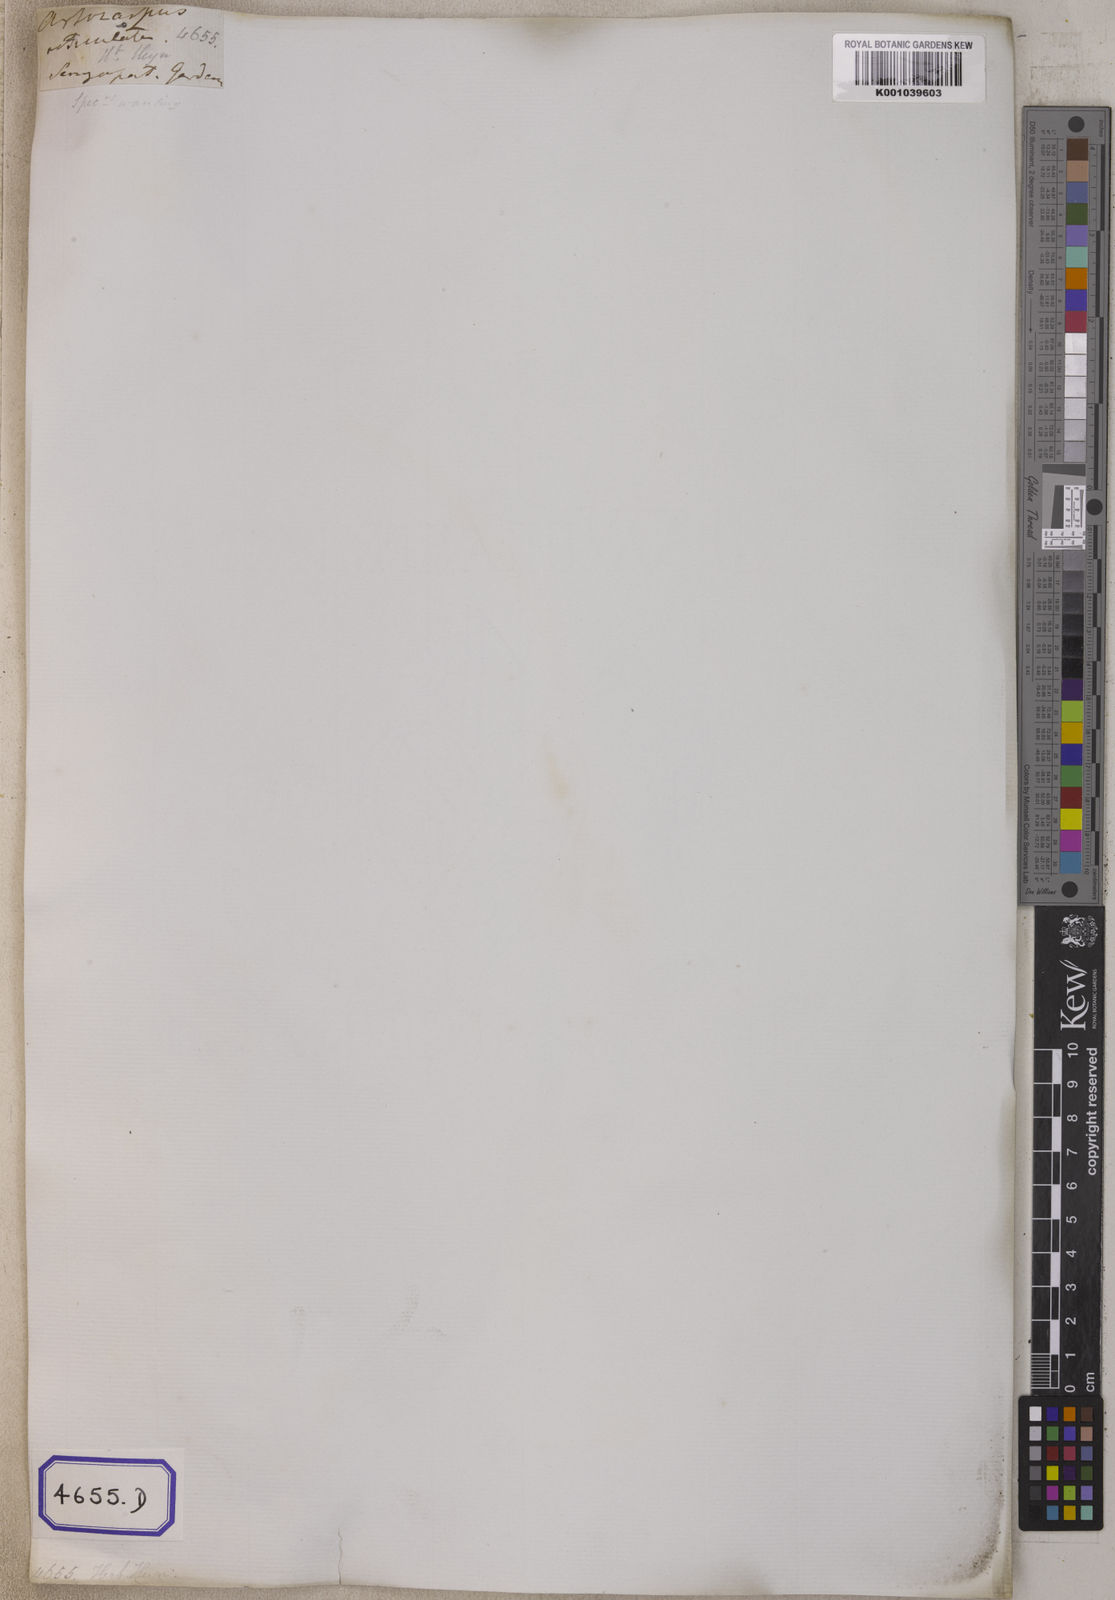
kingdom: Plantae
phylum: Tracheophyta
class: Magnoliopsida
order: Rosales
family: Moraceae
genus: Artocarpus
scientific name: Artocarpus lacucha
